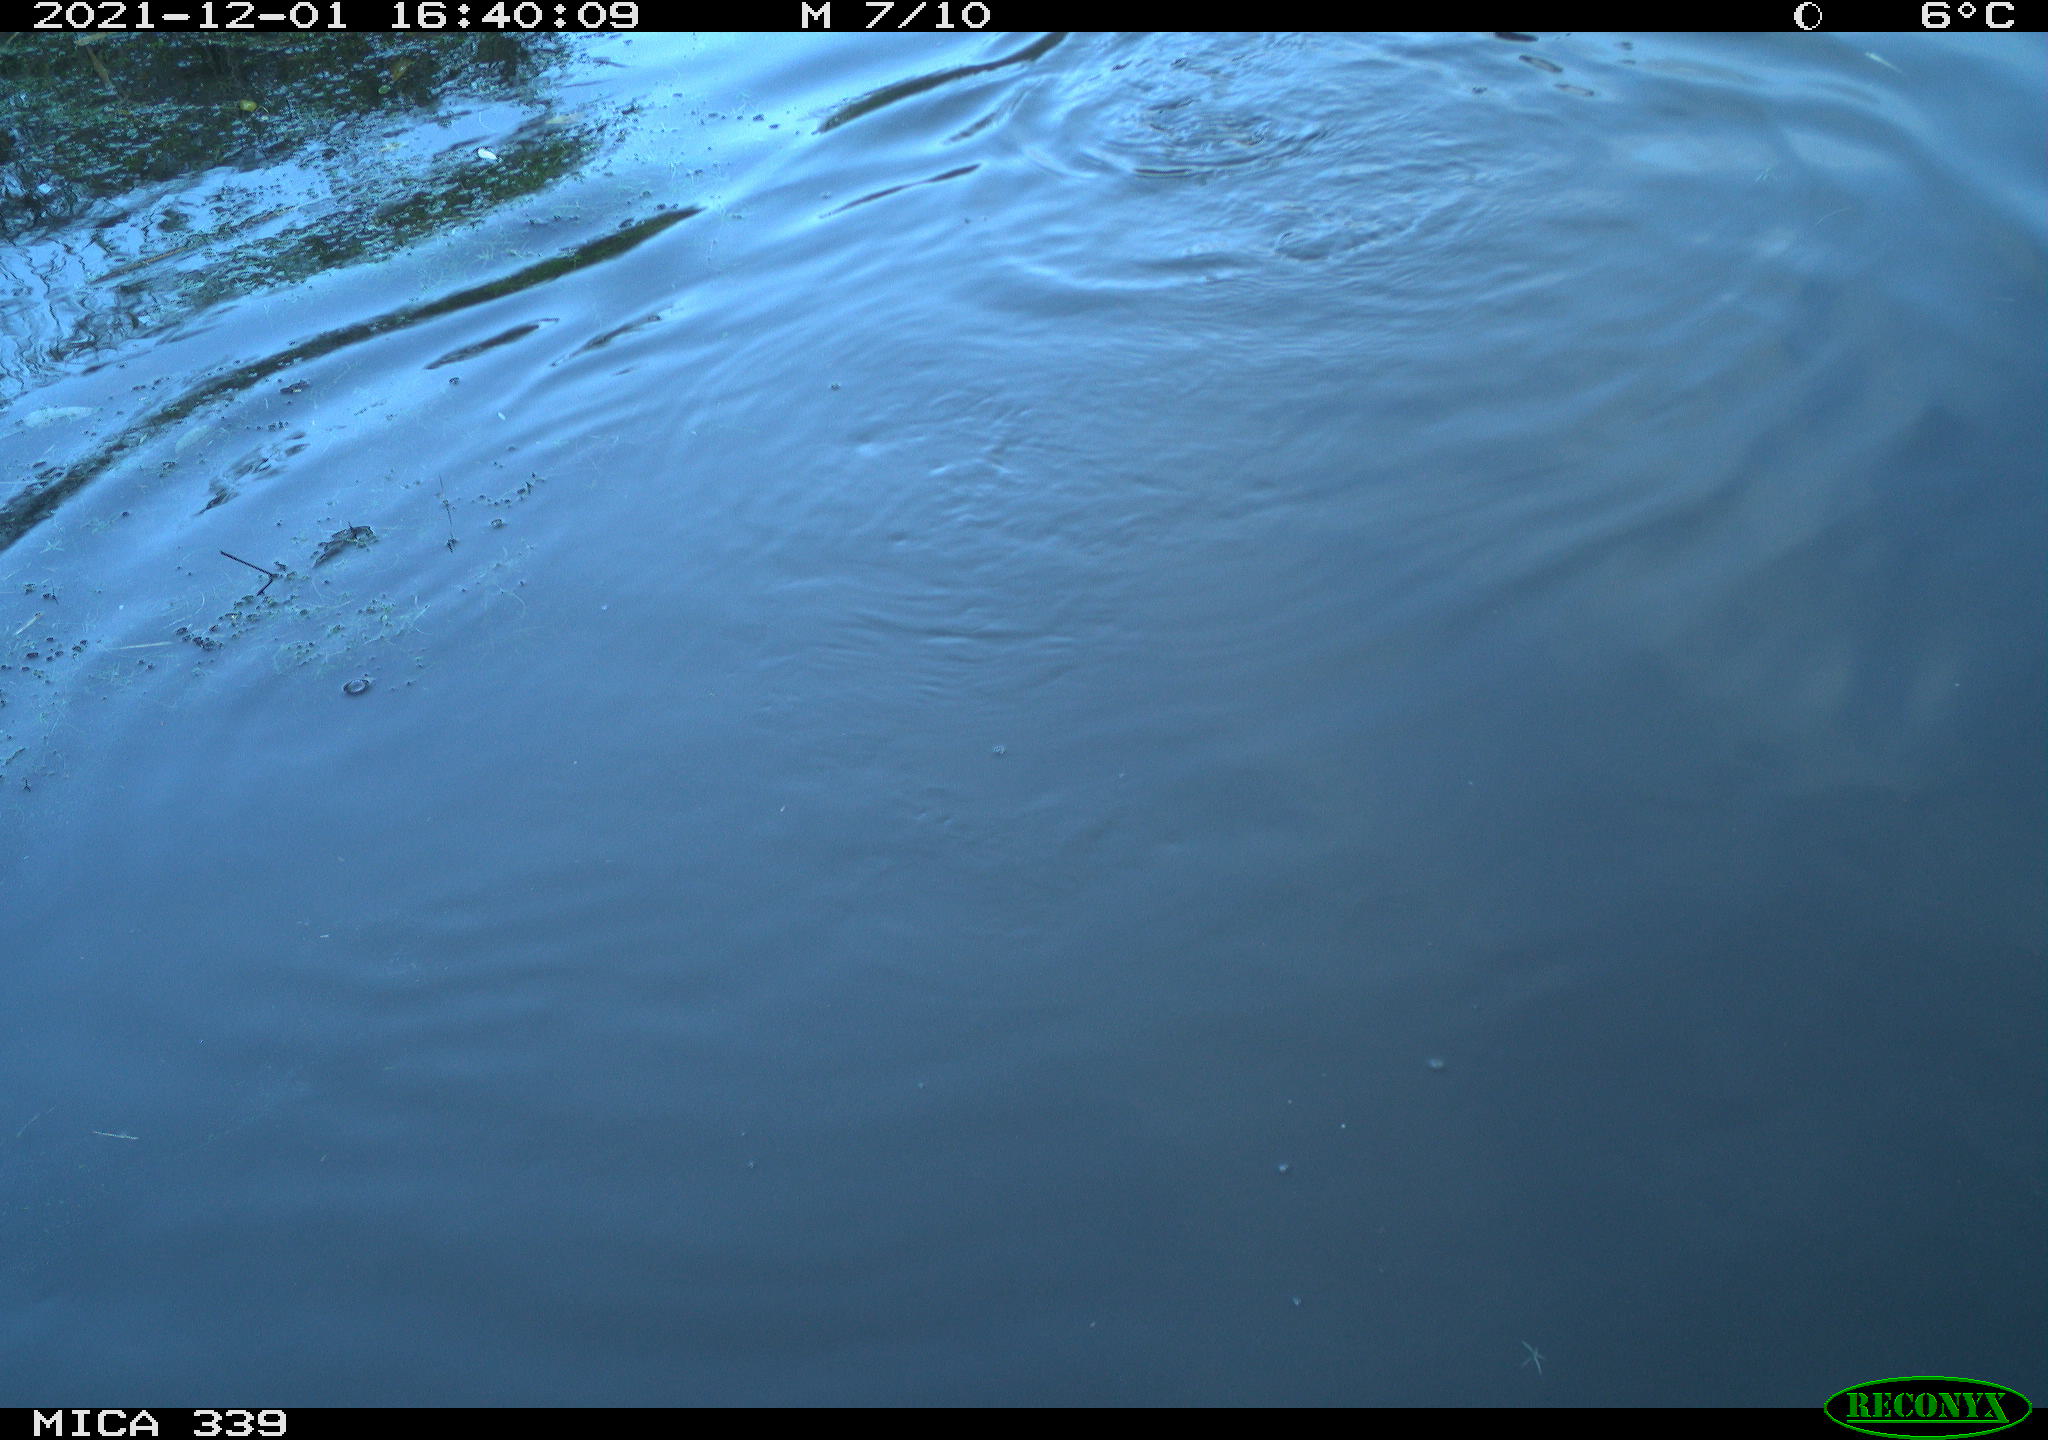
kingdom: Animalia
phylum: Chordata
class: Aves
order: Suliformes
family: Phalacrocoracidae
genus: Phalacrocorax
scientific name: Phalacrocorax carbo
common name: Great cormorant
